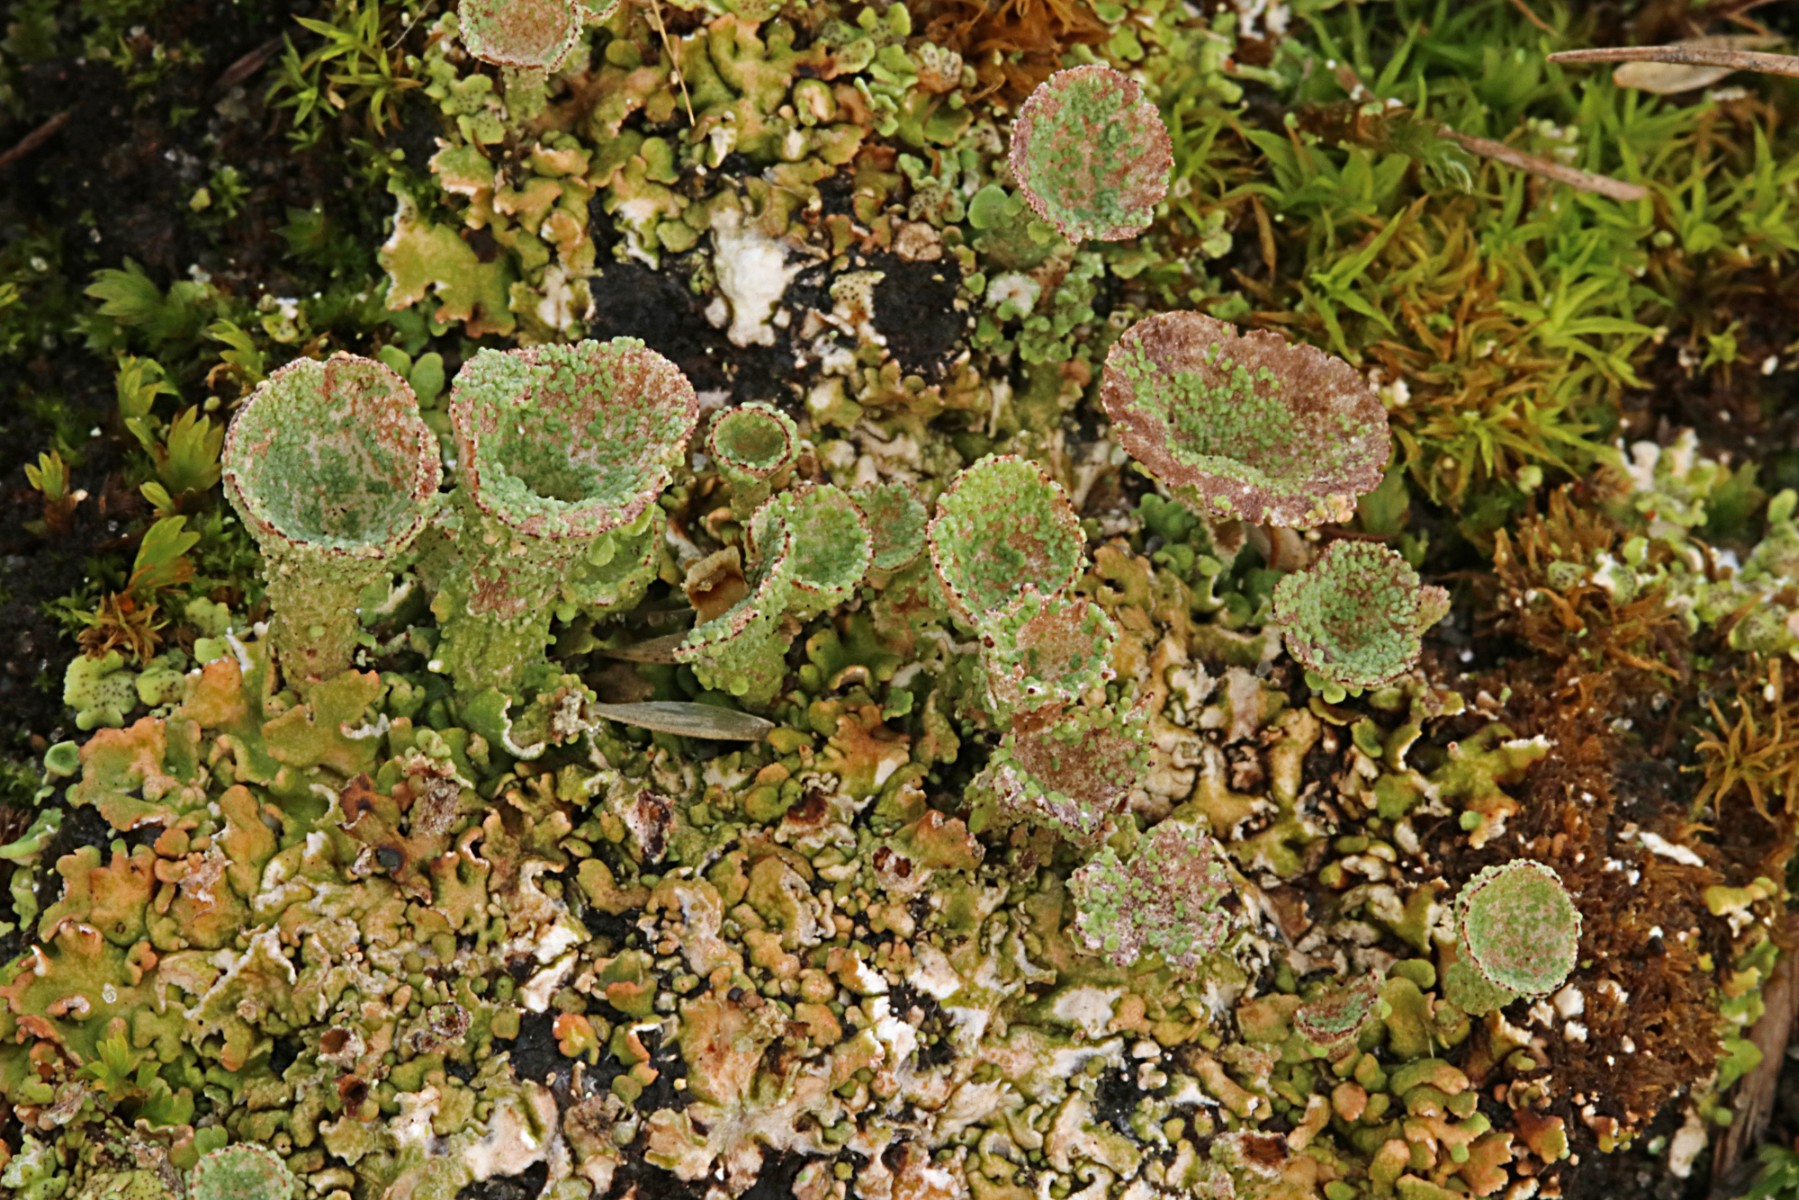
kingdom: Fungi
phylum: Ascomycota
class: Lecanoromycetes
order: Lecanorales
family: Cladoniaceae
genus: Cladonia
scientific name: Cladonia pocillum
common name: kalk-bægerlav
